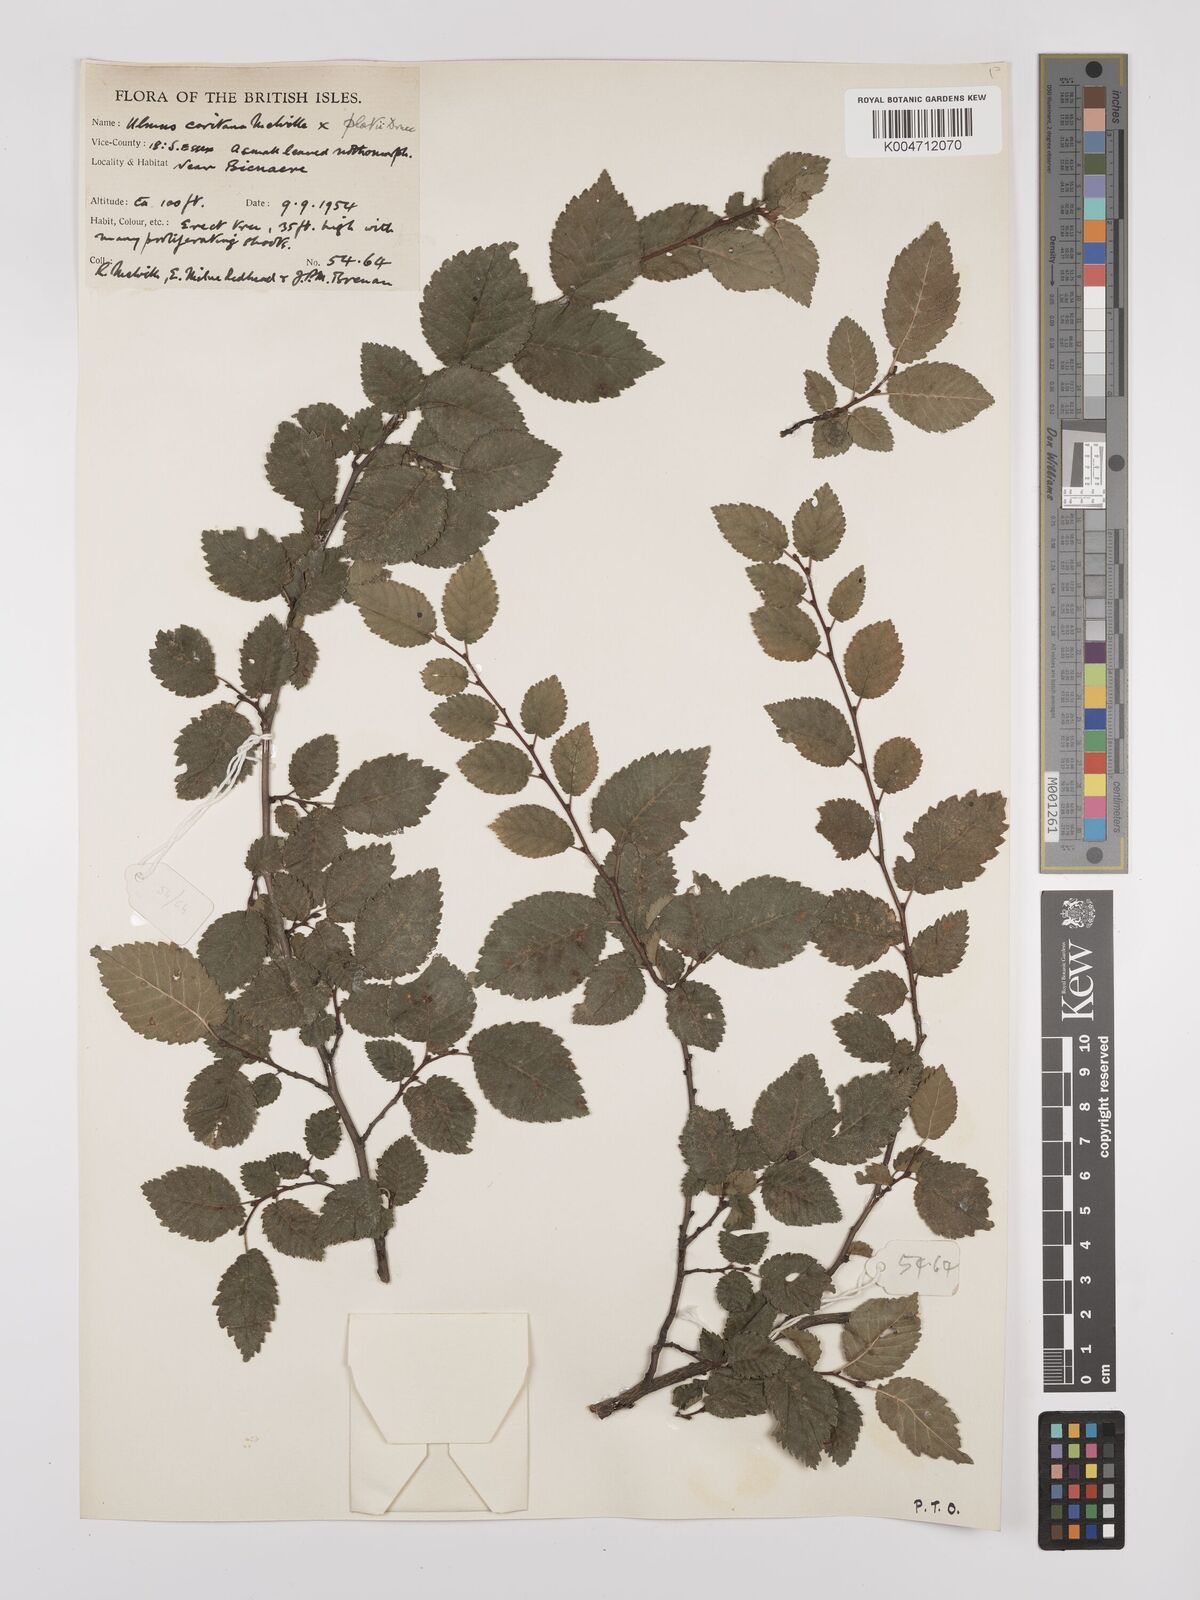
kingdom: Plantae
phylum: Tracheophyta
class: Magnoliopsida
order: Rosales
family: Ulmaceae
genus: Ulmus
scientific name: Ulmus minor
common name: Small-leaved elm
